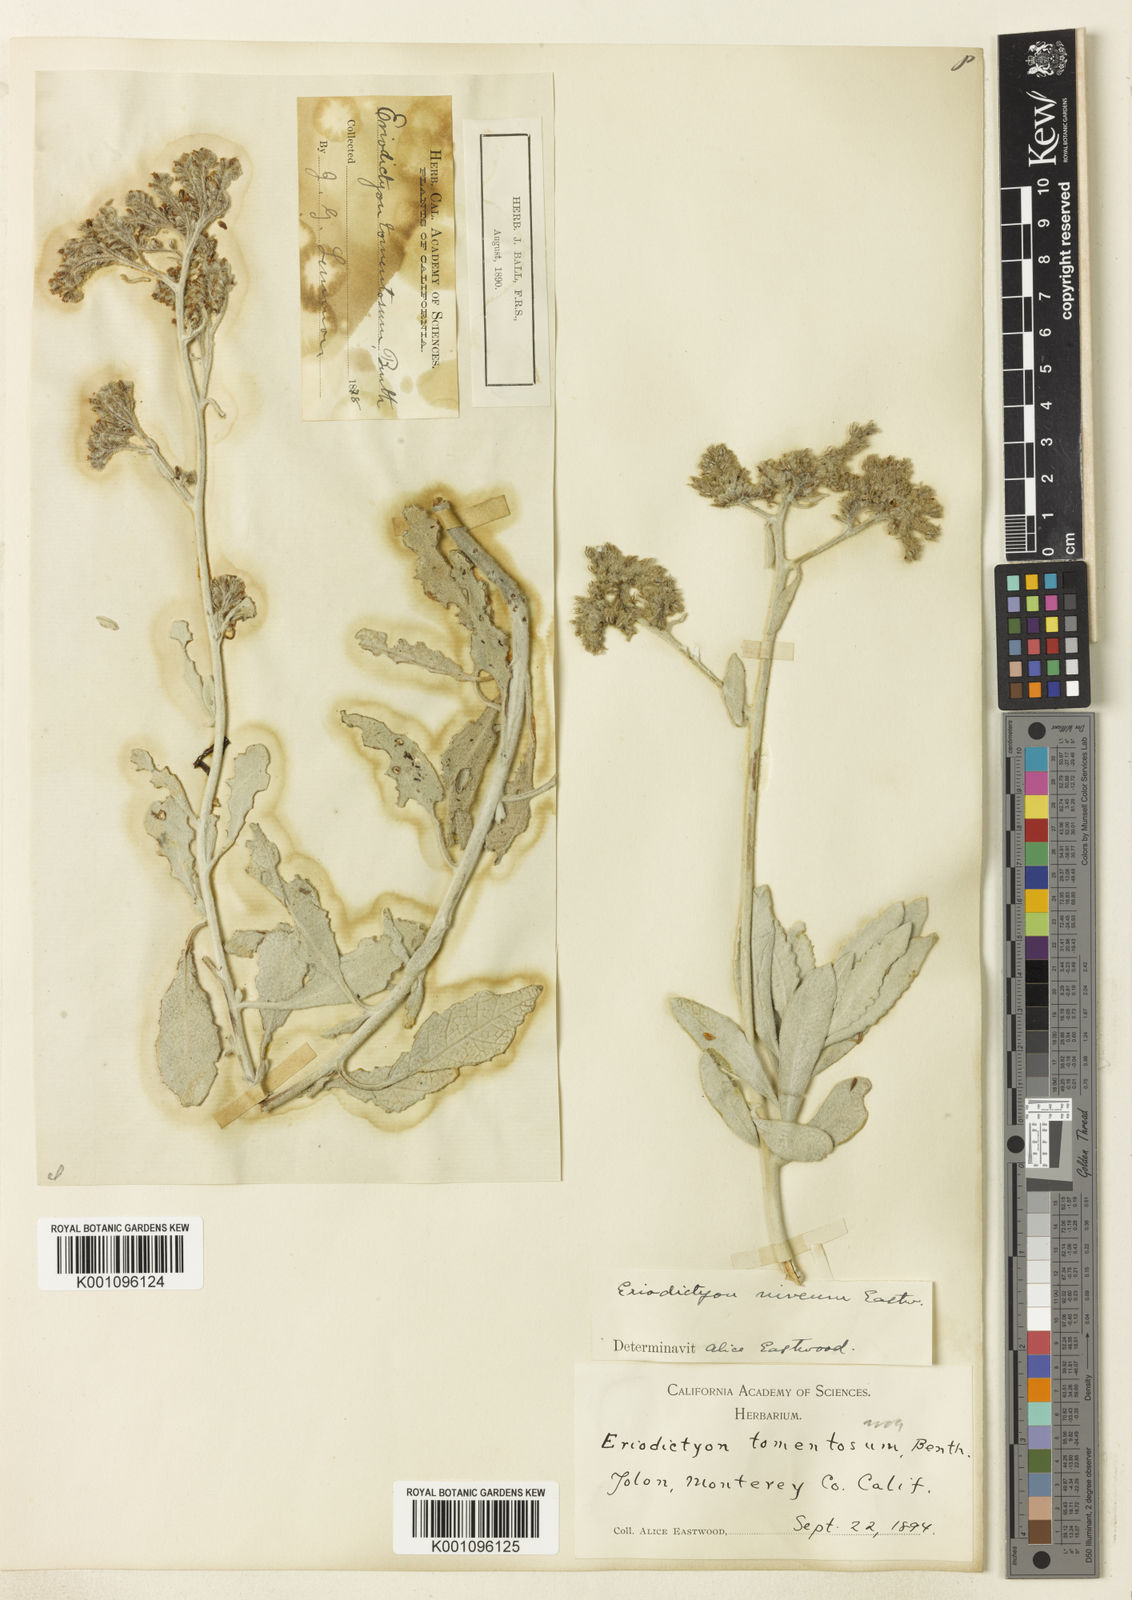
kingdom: Plantae
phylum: Tracheophyta
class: Magnoliopsida
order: Boraginales
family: Namaceae
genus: Eriodictyon
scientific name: Eriodictyon tomentosum
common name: Woolly yerba-santa
